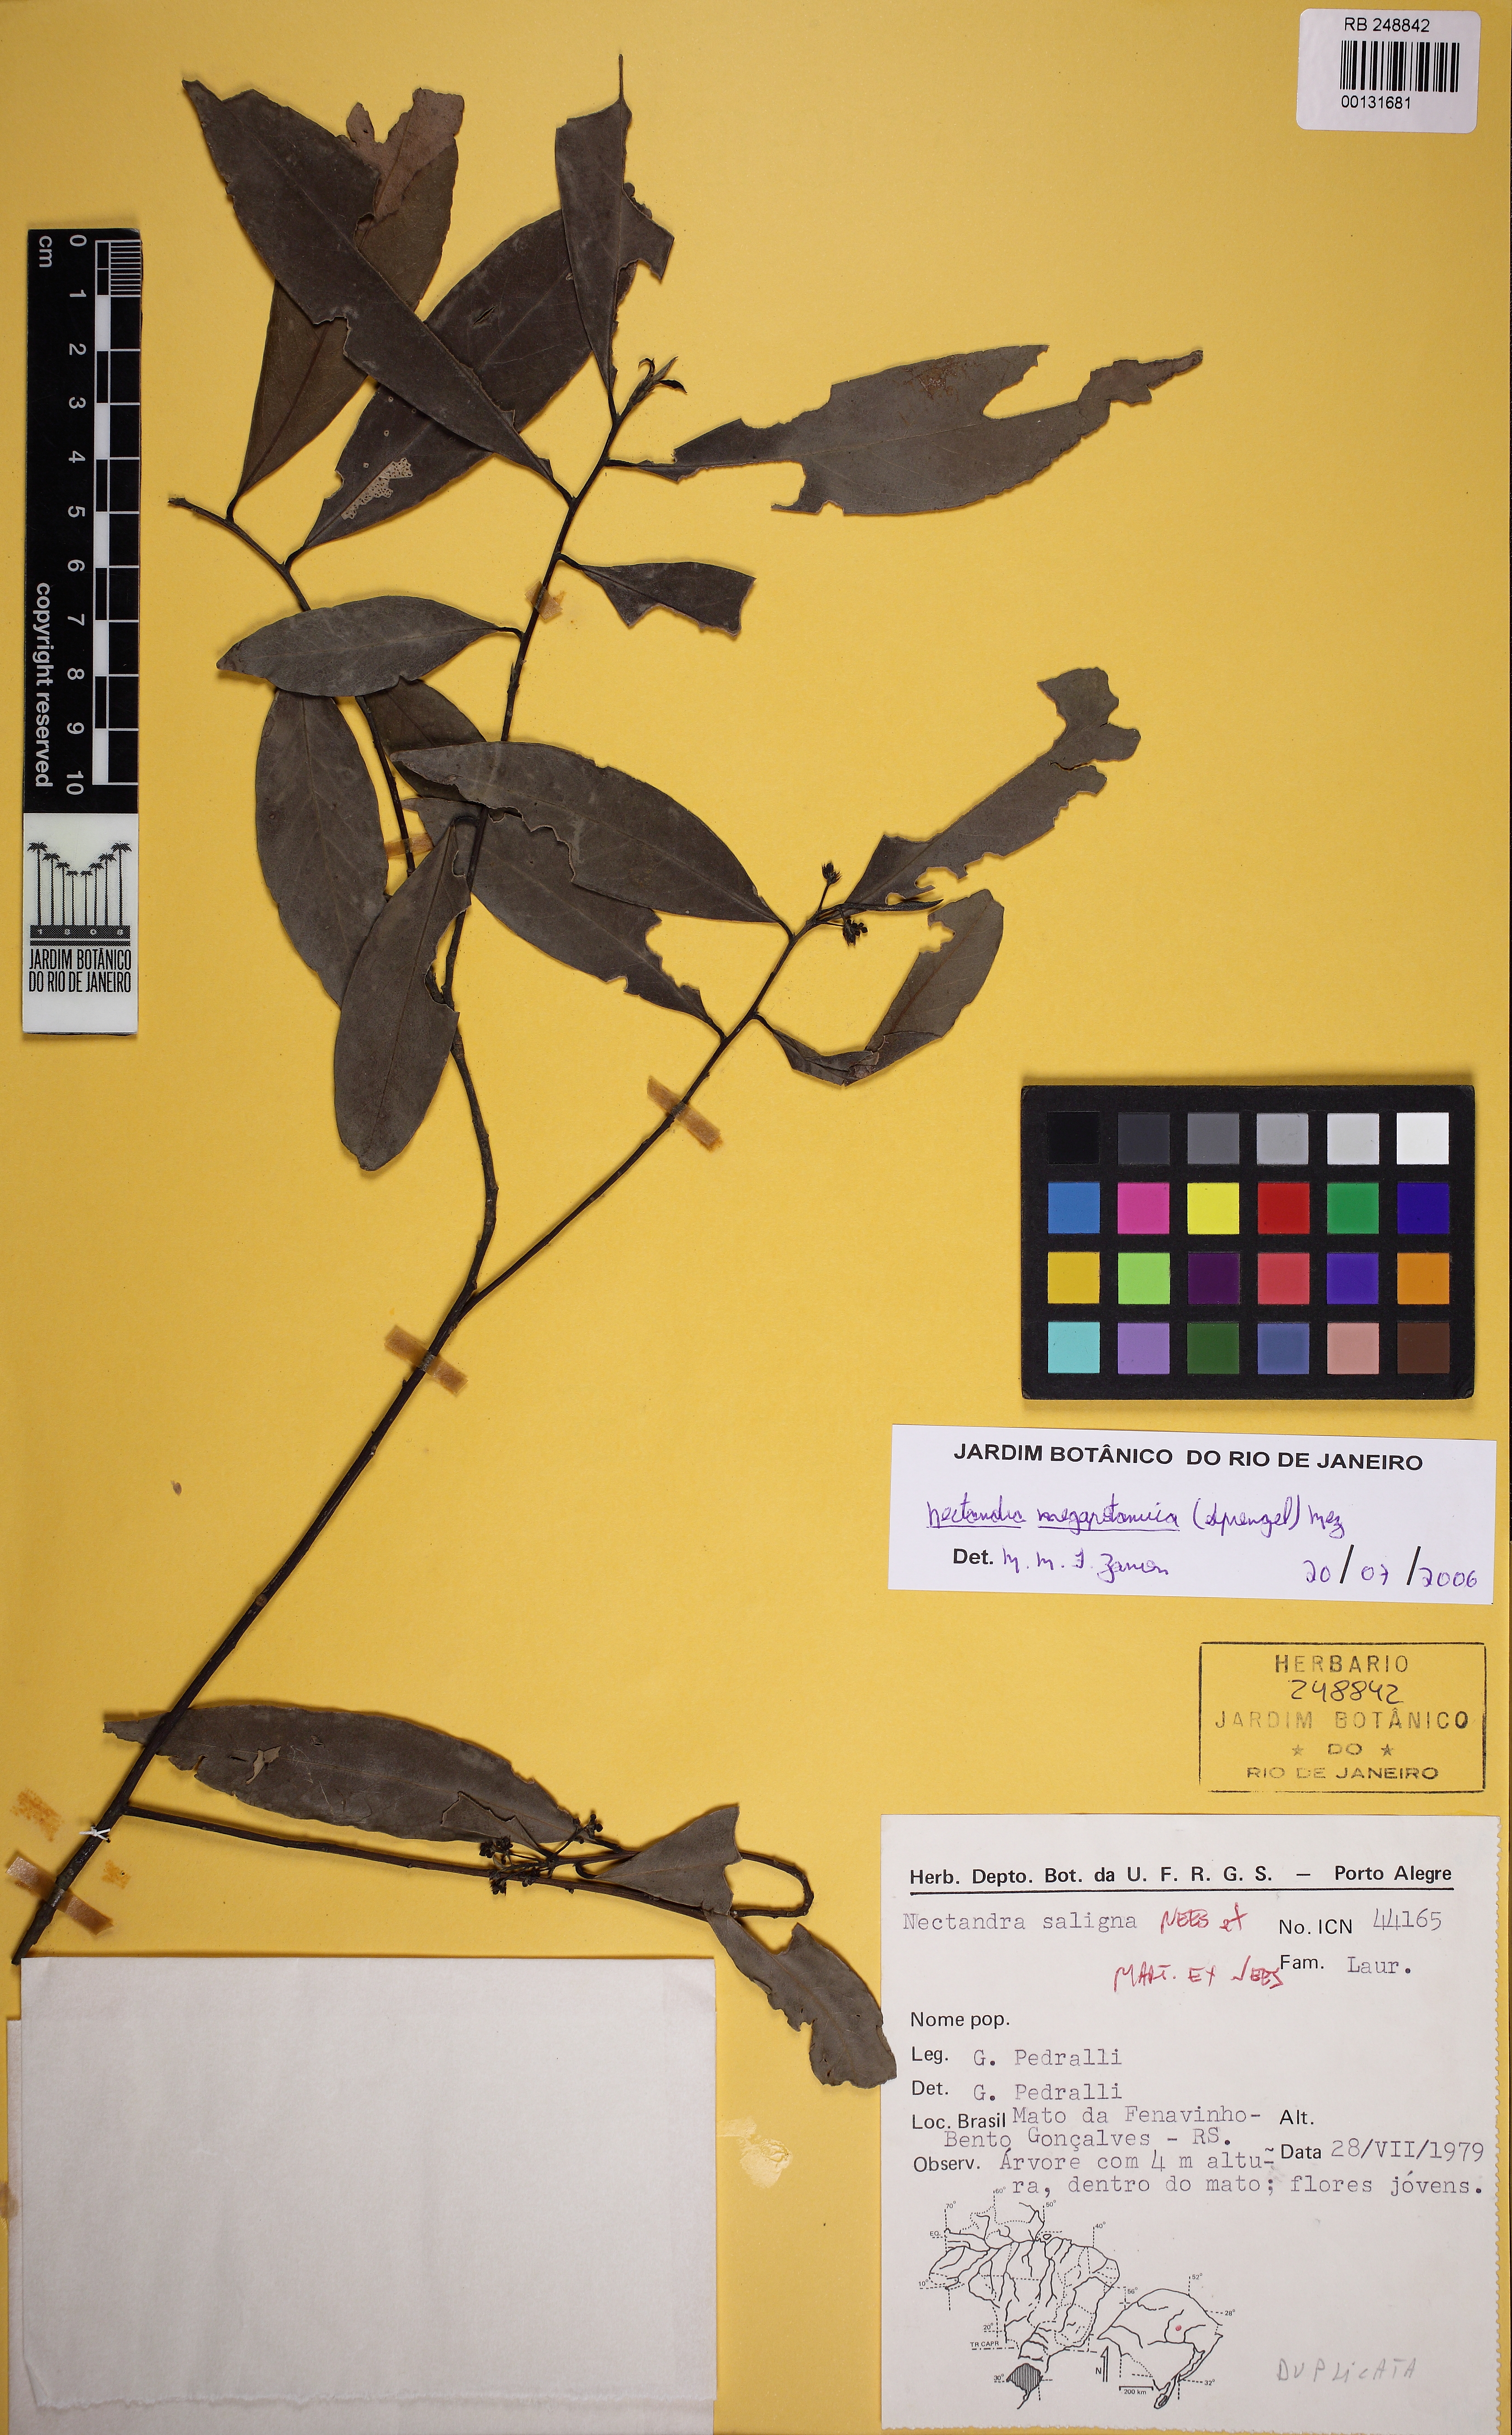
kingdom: Plantae
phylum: Tracheophyta
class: Magnoliopsida
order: Laurales
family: Lauraceae
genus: Nectandra
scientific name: Nectandra megapotamica
